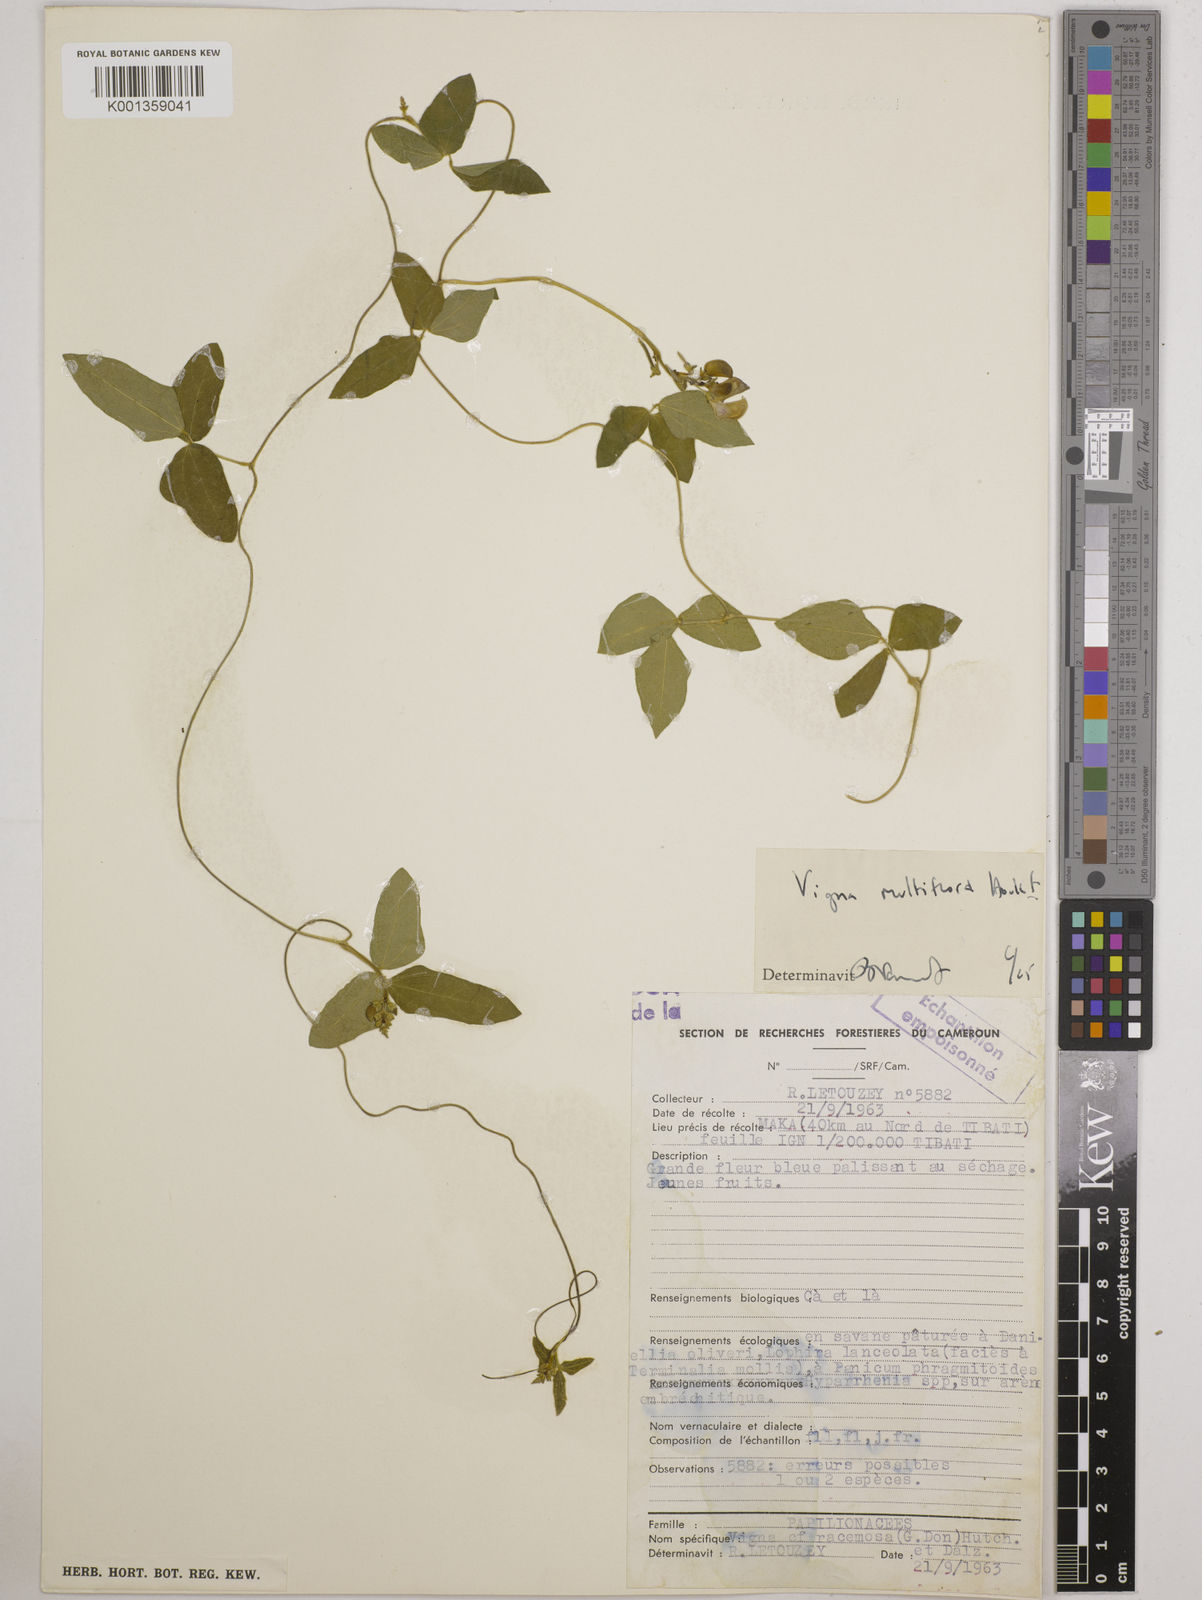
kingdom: Plantae
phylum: Tracheophyta
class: Magnoliopsida
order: Fabales
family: Fabaceae
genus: Vigna
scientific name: Vigna gracilis
